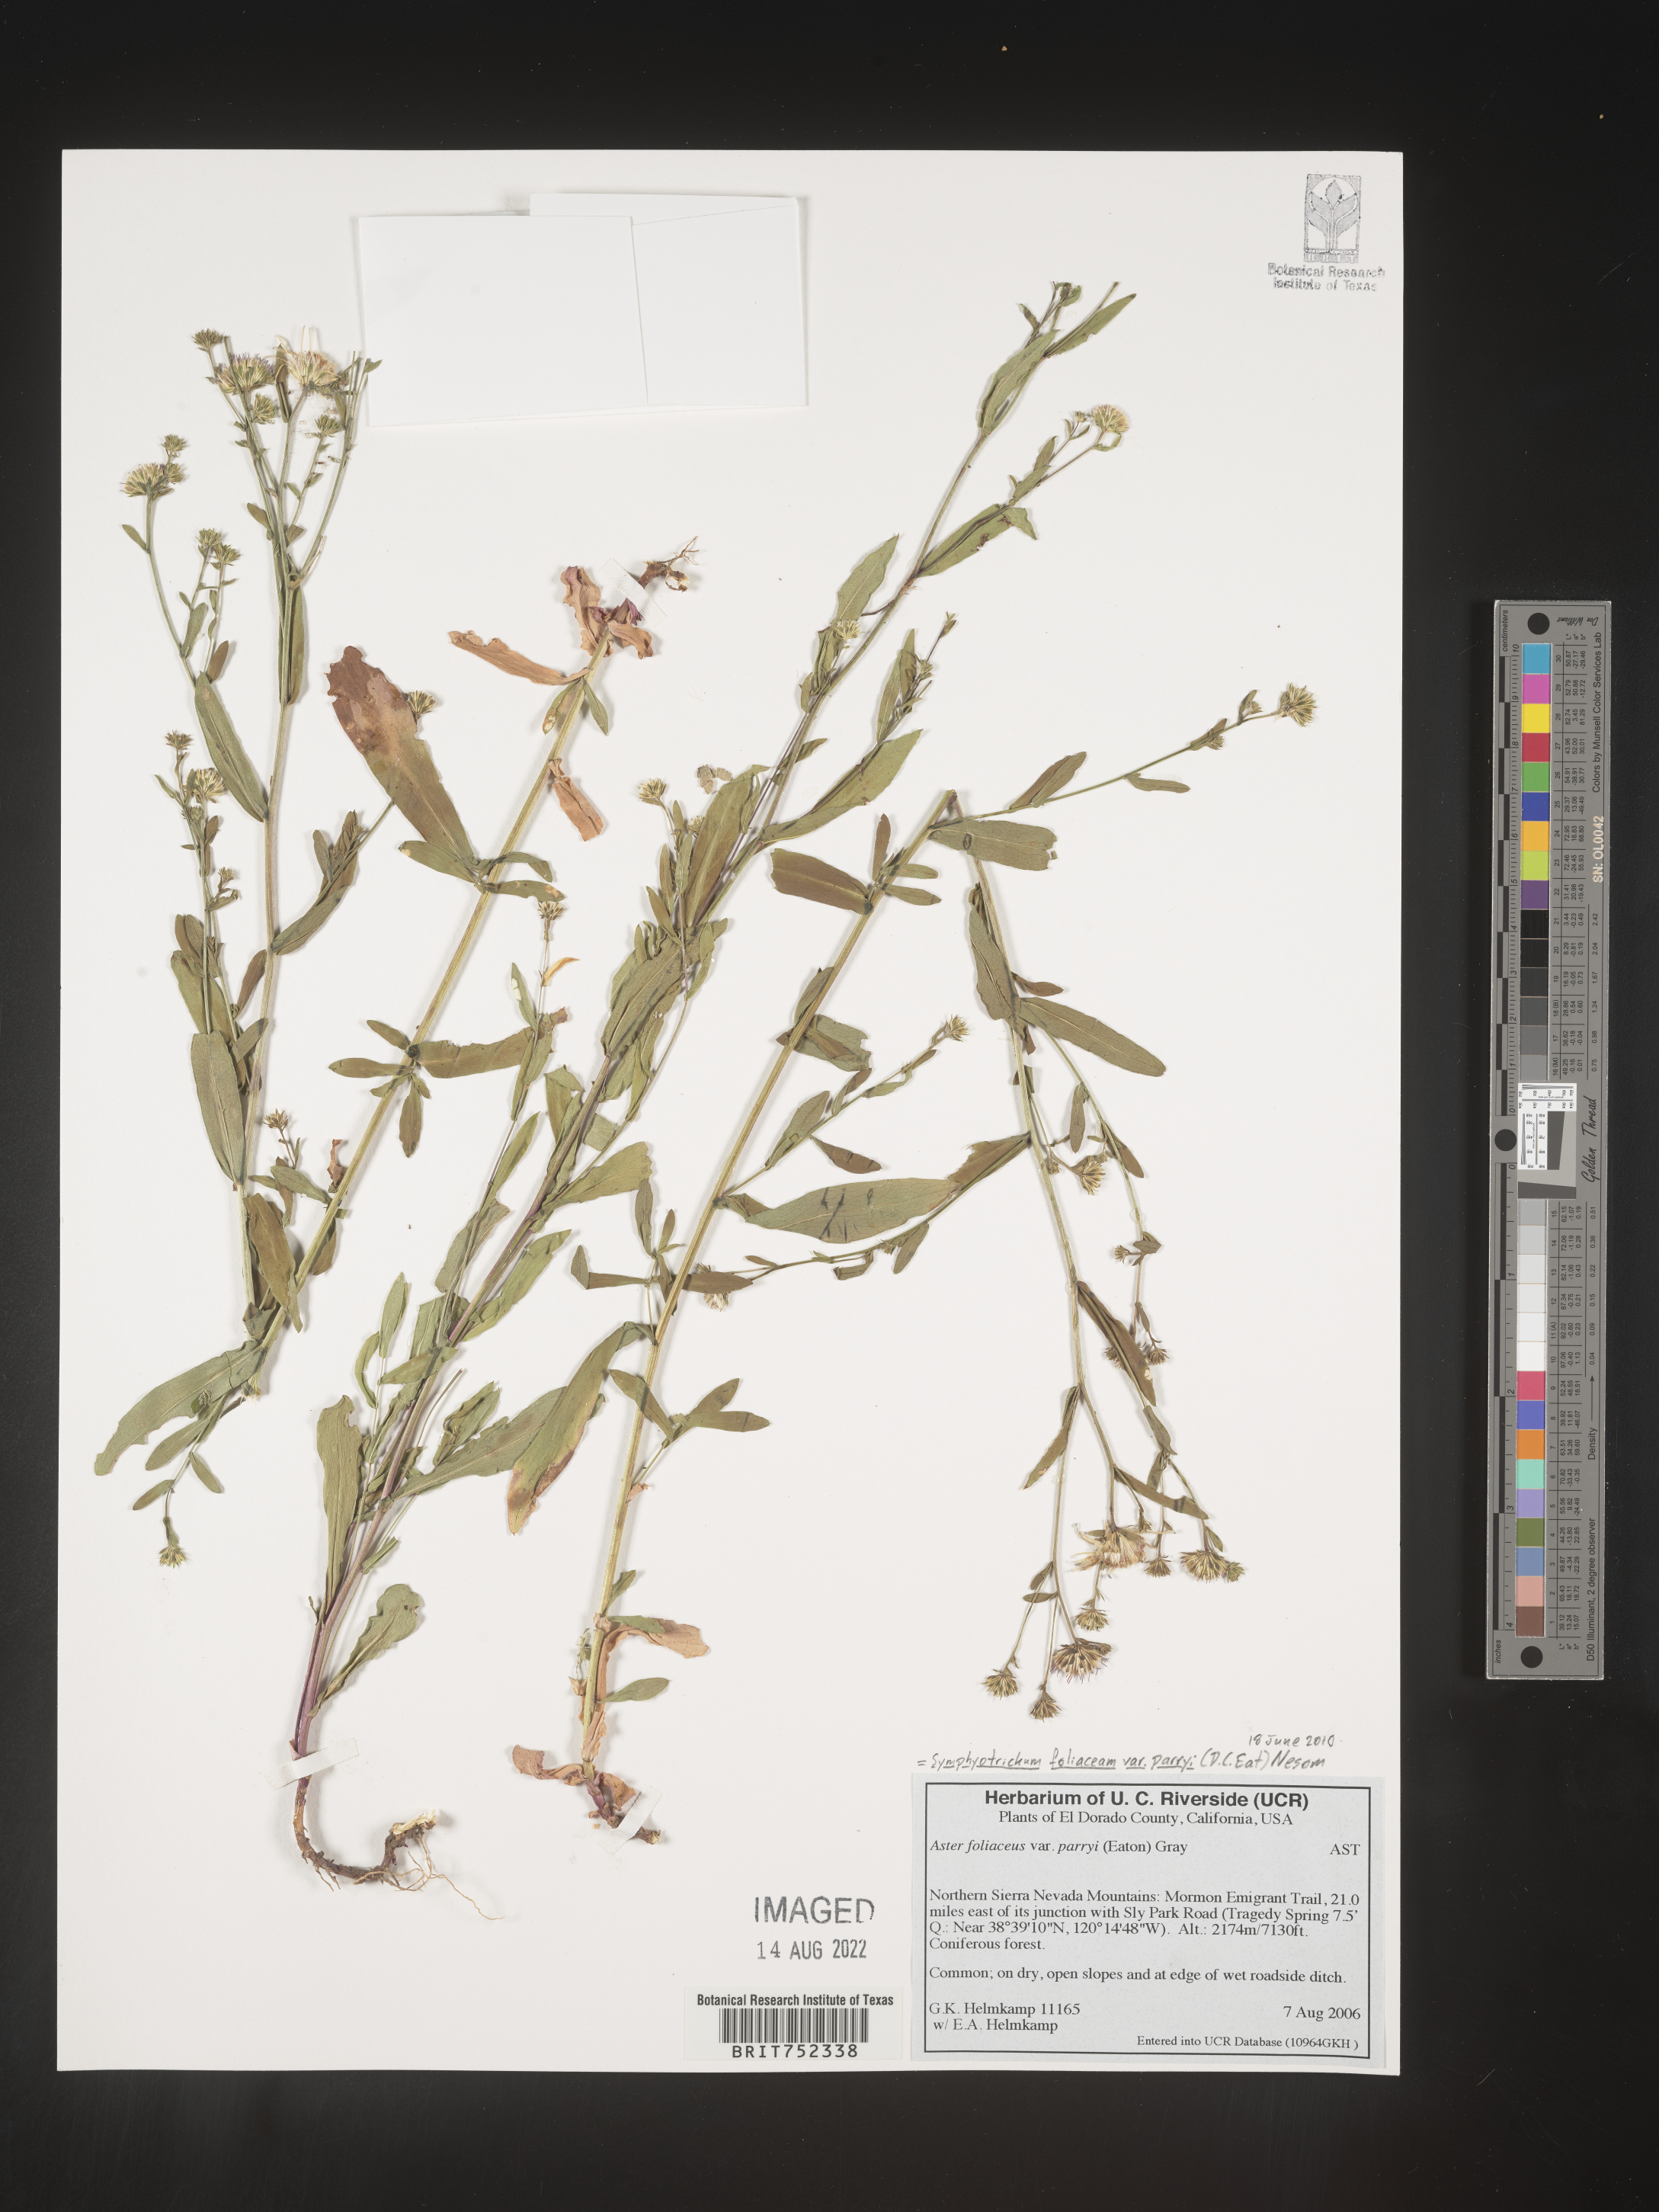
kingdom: Plantae
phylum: Tracheophyta
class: Magnoliopsida
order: Asterales
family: Asteraceae
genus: Symphyotrichum
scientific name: Symphyotrichum foliaceum
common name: Leafy aster
